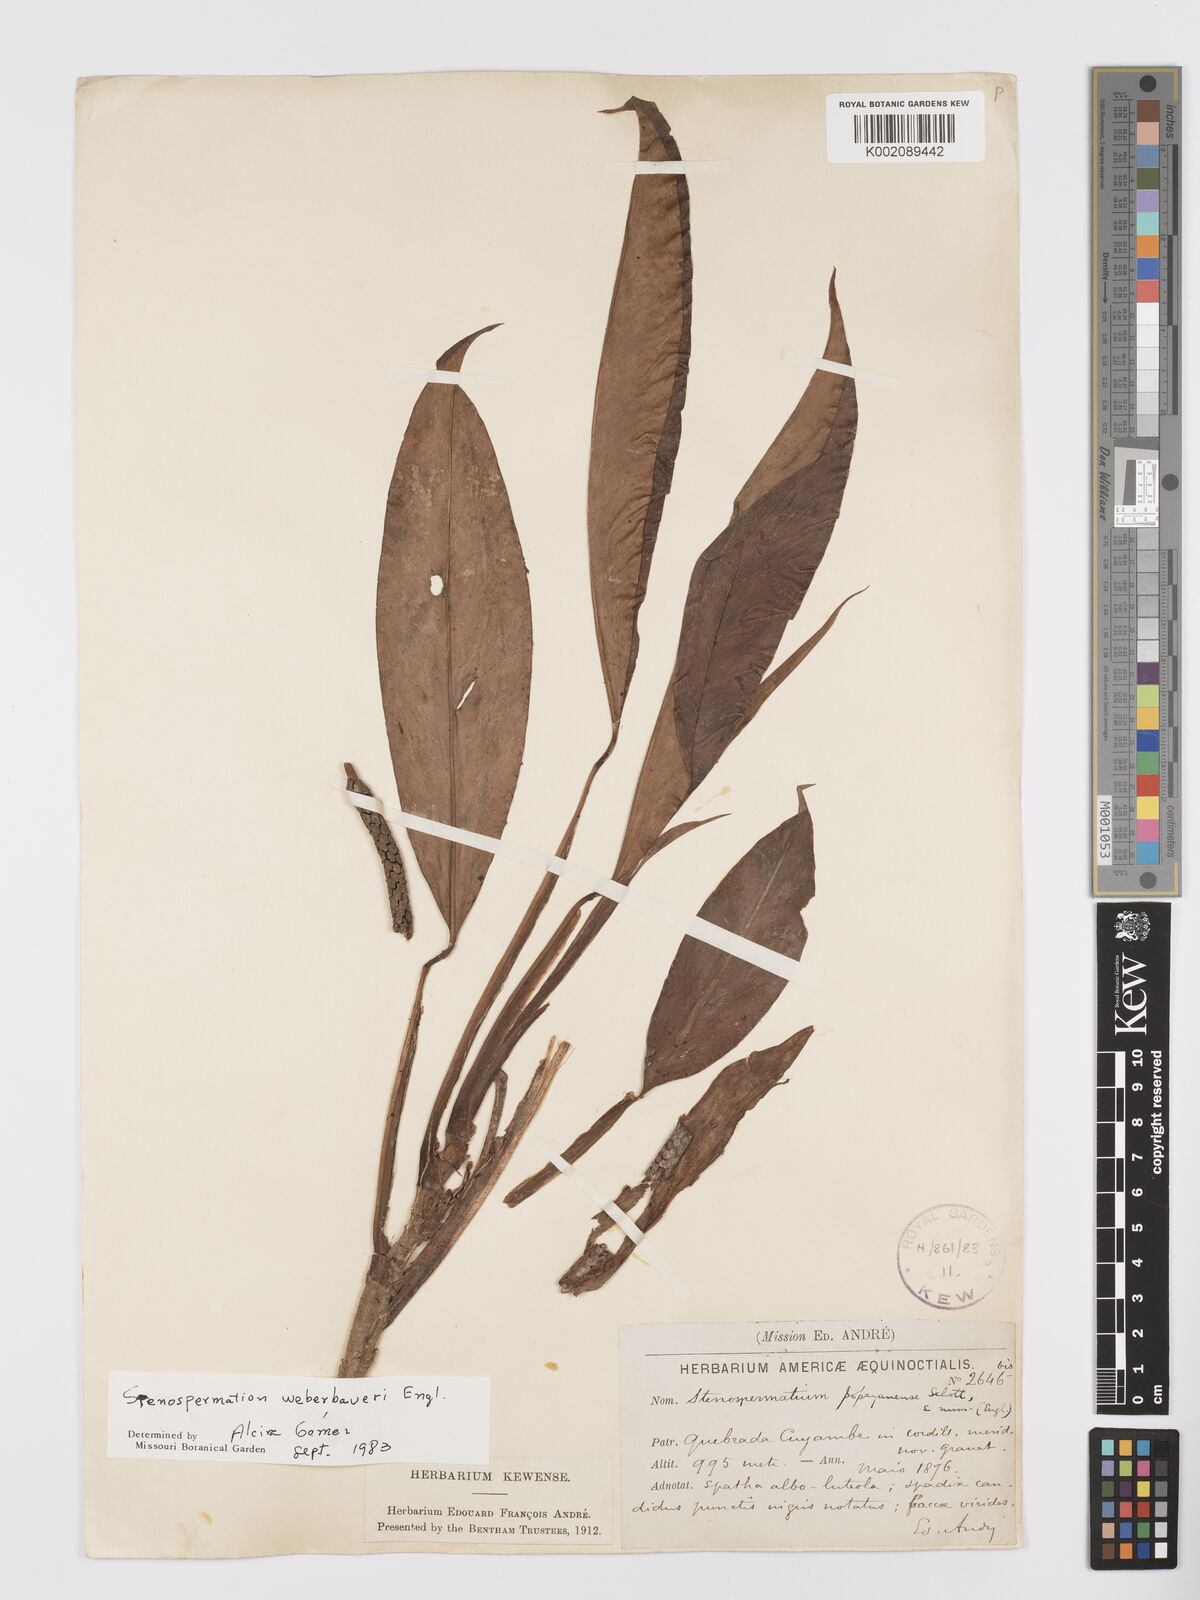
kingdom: Plantae
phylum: Tracheophyta
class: Liliopsida
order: Alismatales
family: Araceae
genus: Stenospermation
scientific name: Stenospermation weberbaueri
